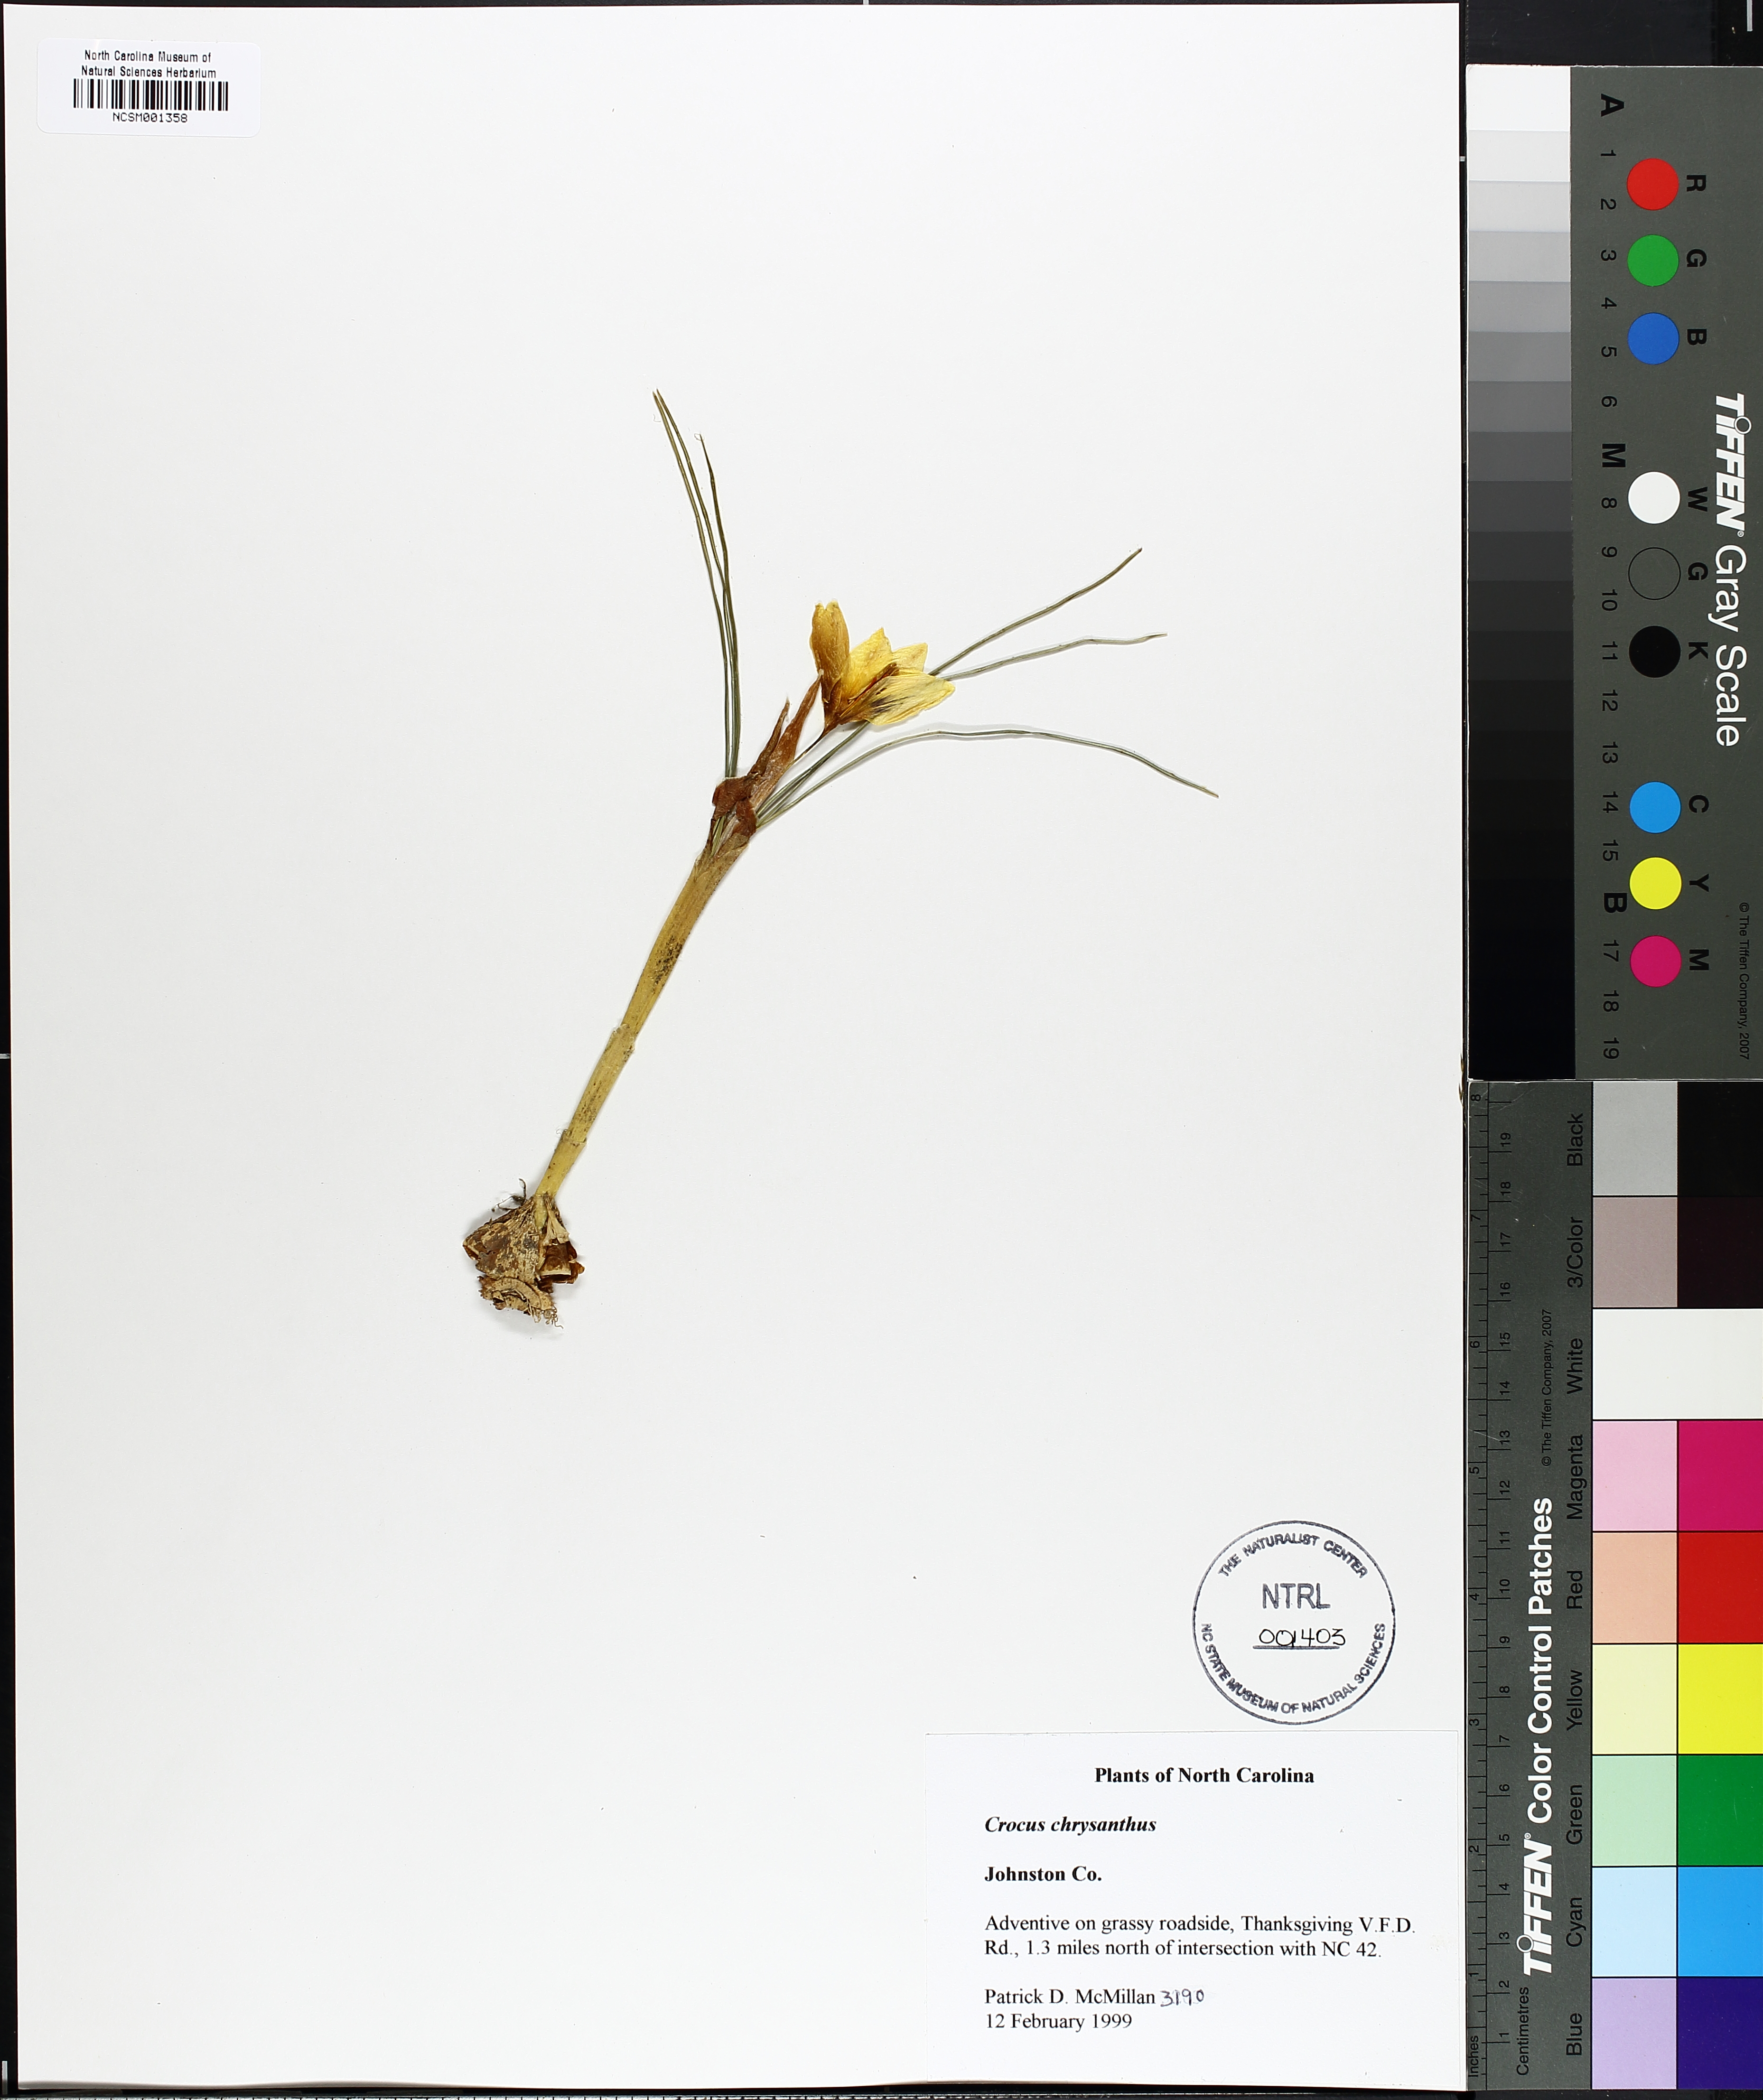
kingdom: Plantae
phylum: Tracheophyta
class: Liliopsida
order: Asparagales
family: Iridaceae
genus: Crocus
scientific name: Crocus chrysanthus
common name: Golden crocus
